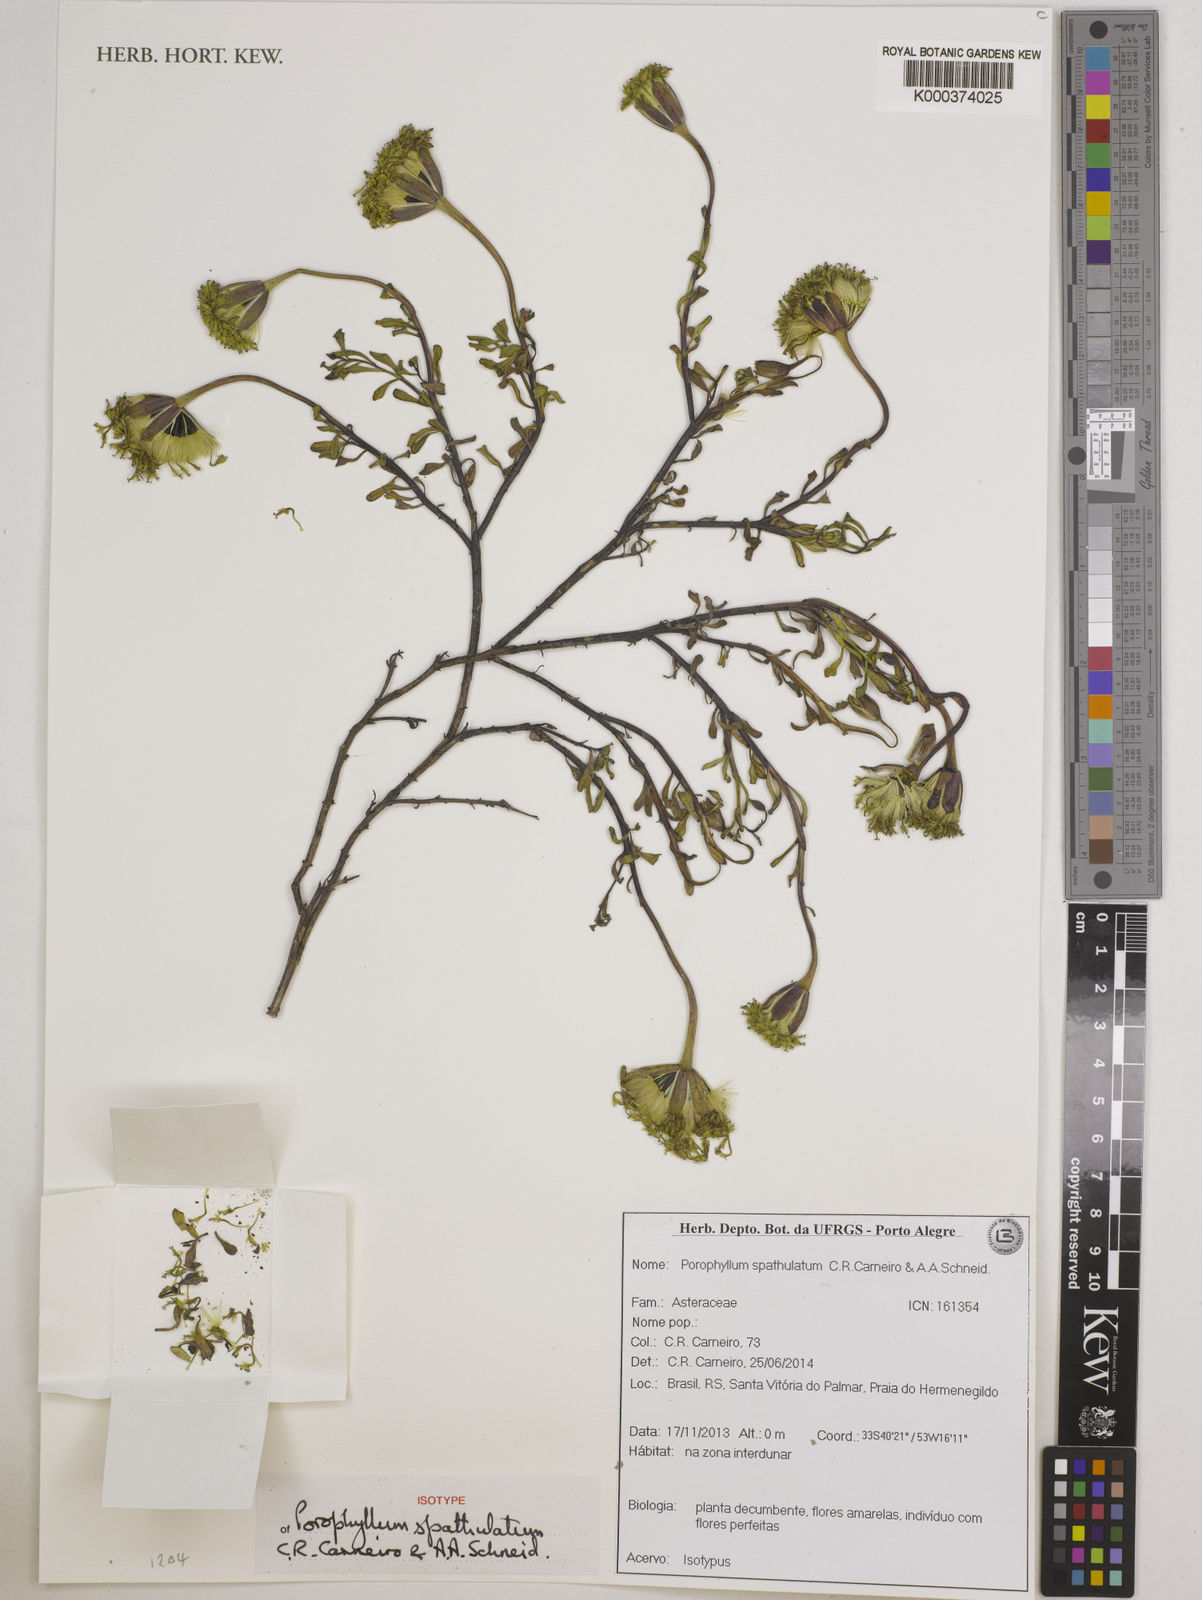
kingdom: Plantae
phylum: Tracheophyta
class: Magnoliopsida
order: Asterales
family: Asteraceae
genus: Porophyllum
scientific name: Porophyllum spathulatum
